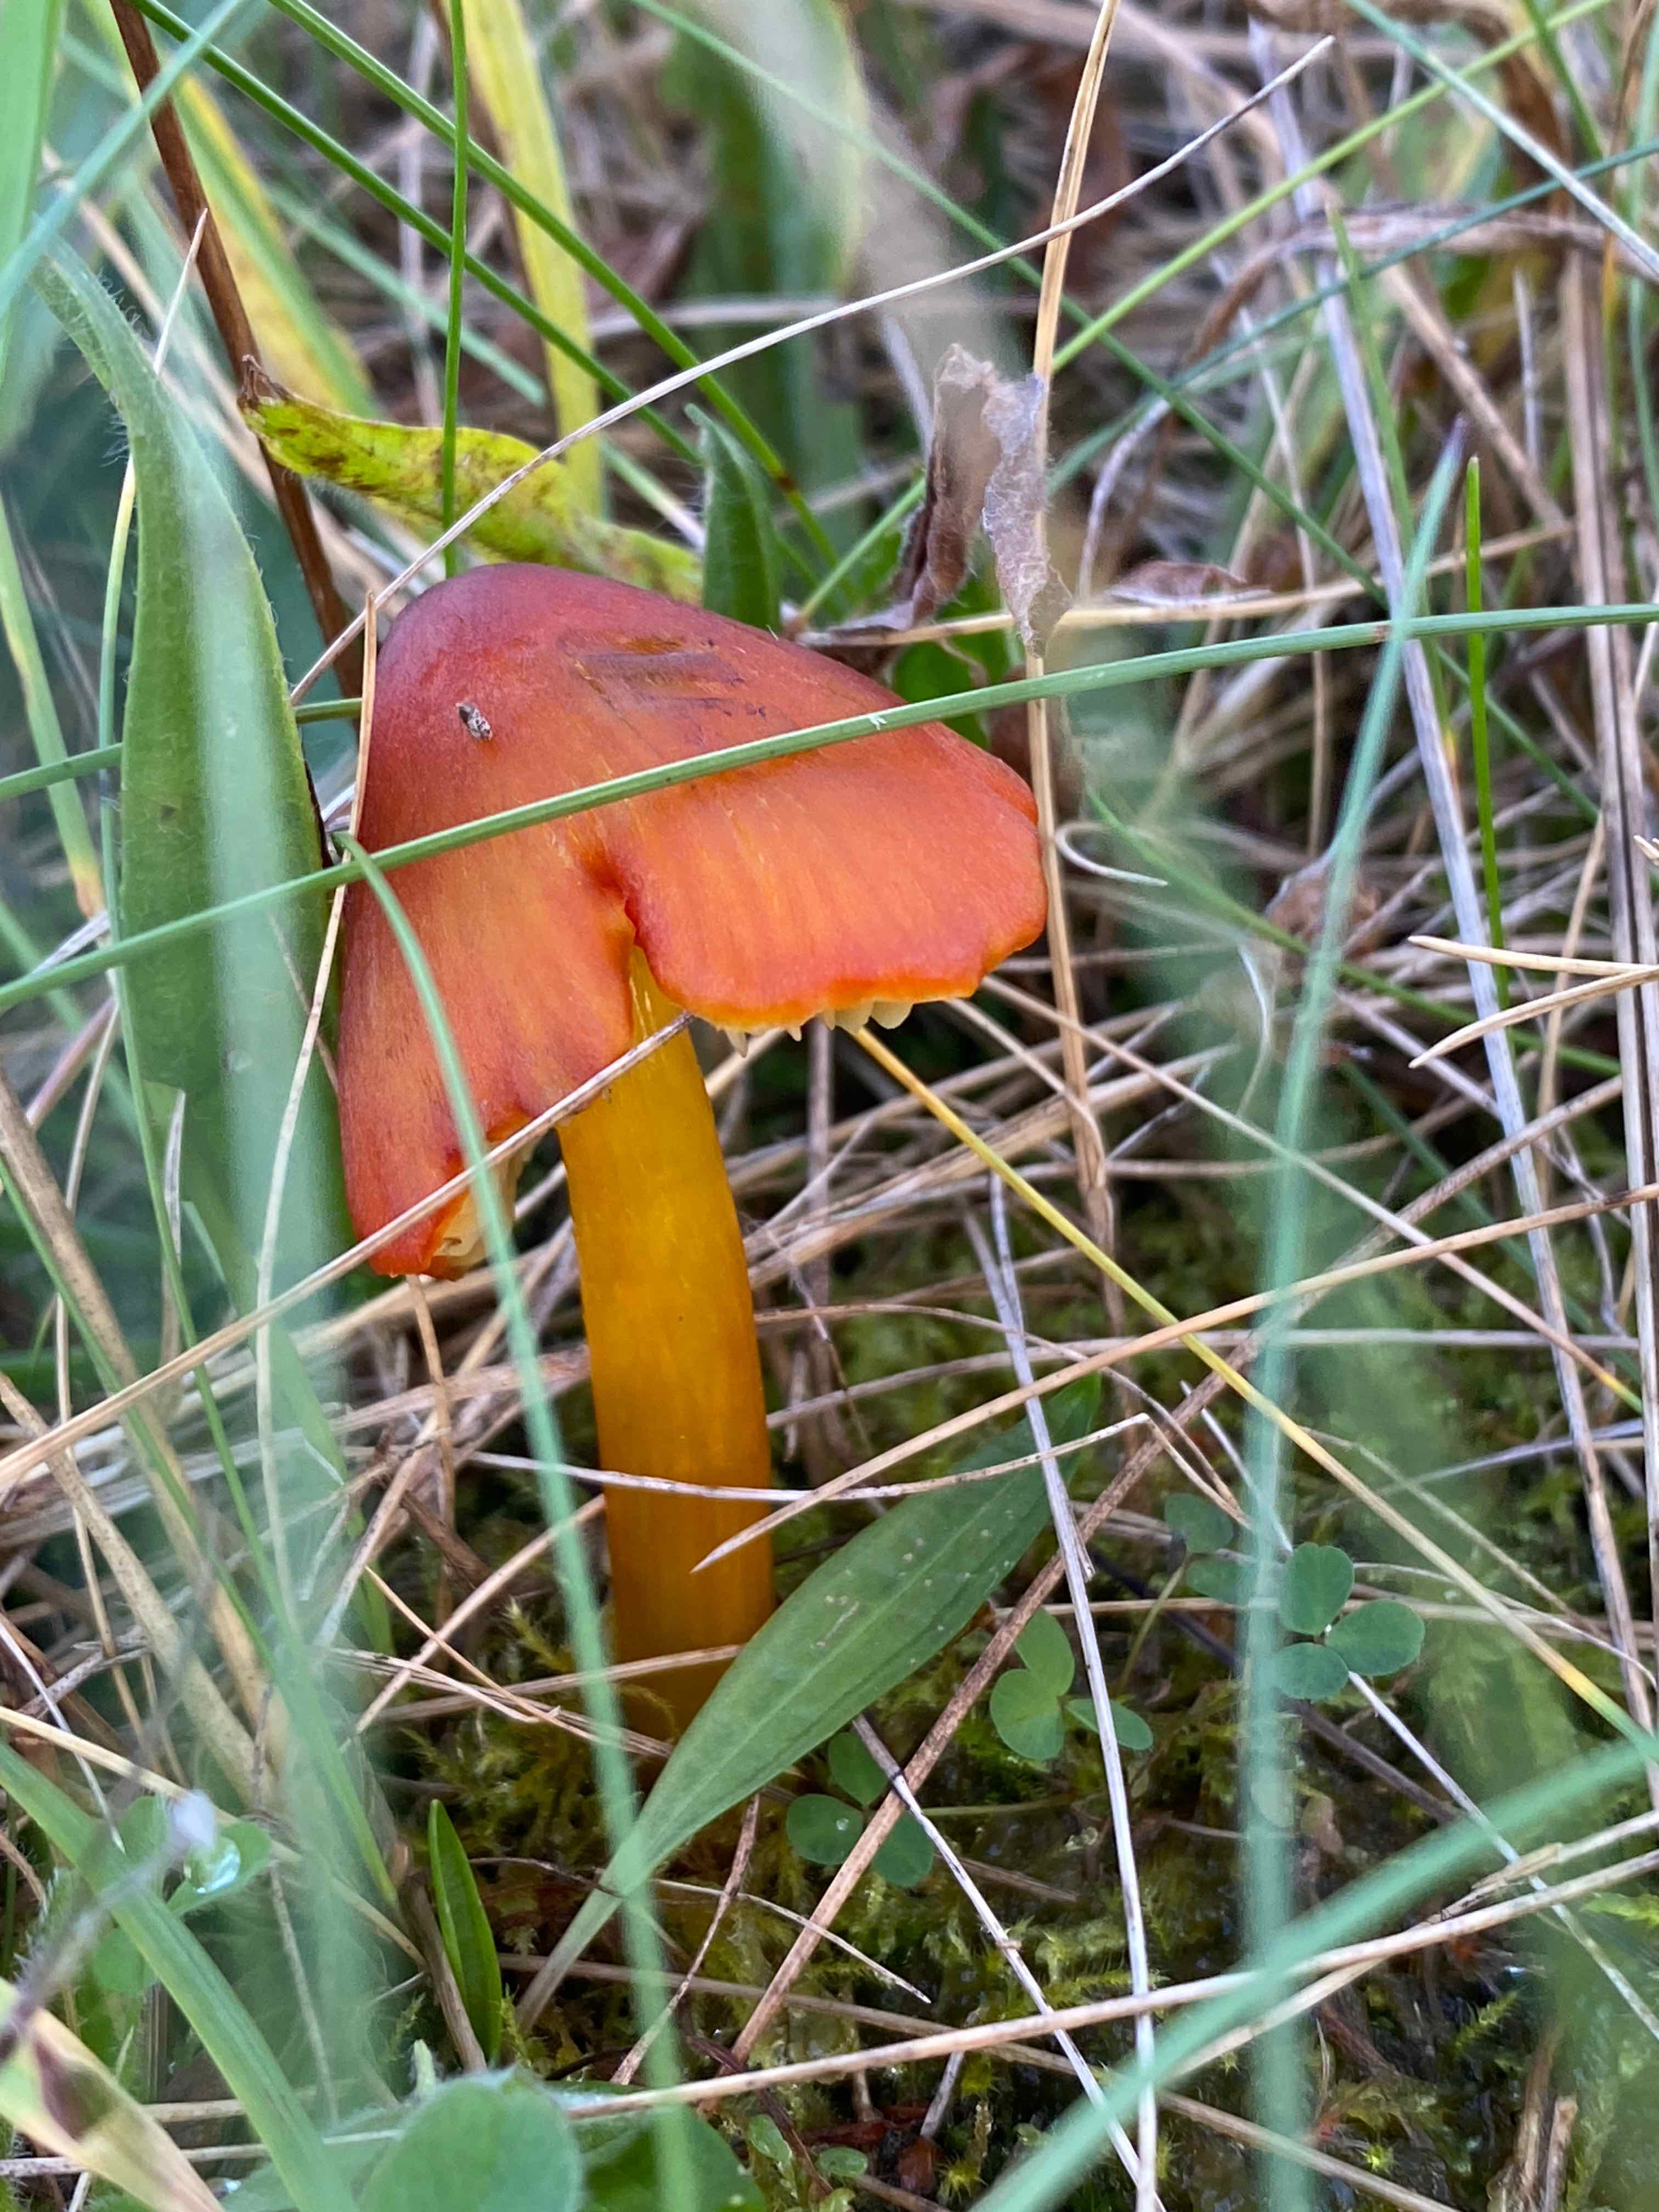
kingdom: Fungi
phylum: Basidiomycota
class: Agaricomycetes
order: Agaricales
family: Hygrophoraceae
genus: Hygrocybe
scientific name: Hygrocybe conica
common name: kegle-vokshat
